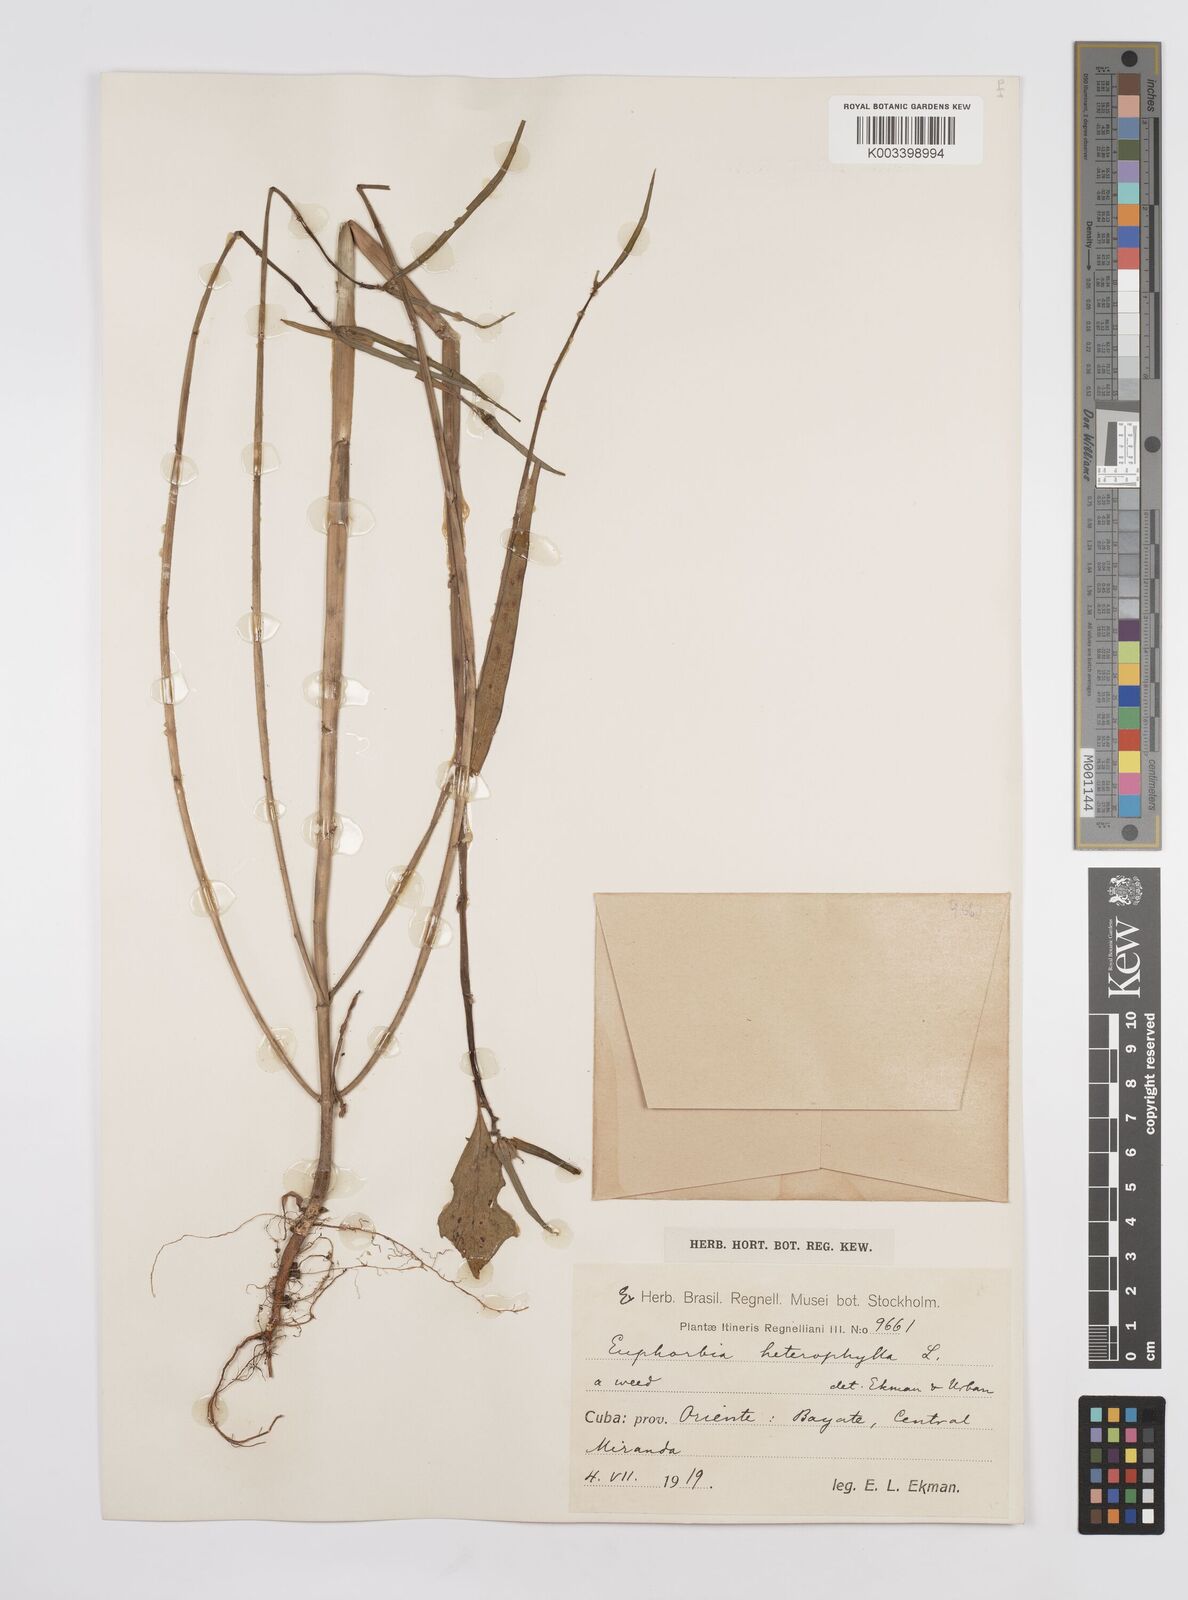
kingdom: Plantae
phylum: Tracheophyta
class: Magnoliopsida
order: Malpighiales
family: Euphorbiaceae
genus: Euphorbia
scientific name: Euphorbia heterophylla
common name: Mexican fireplant
